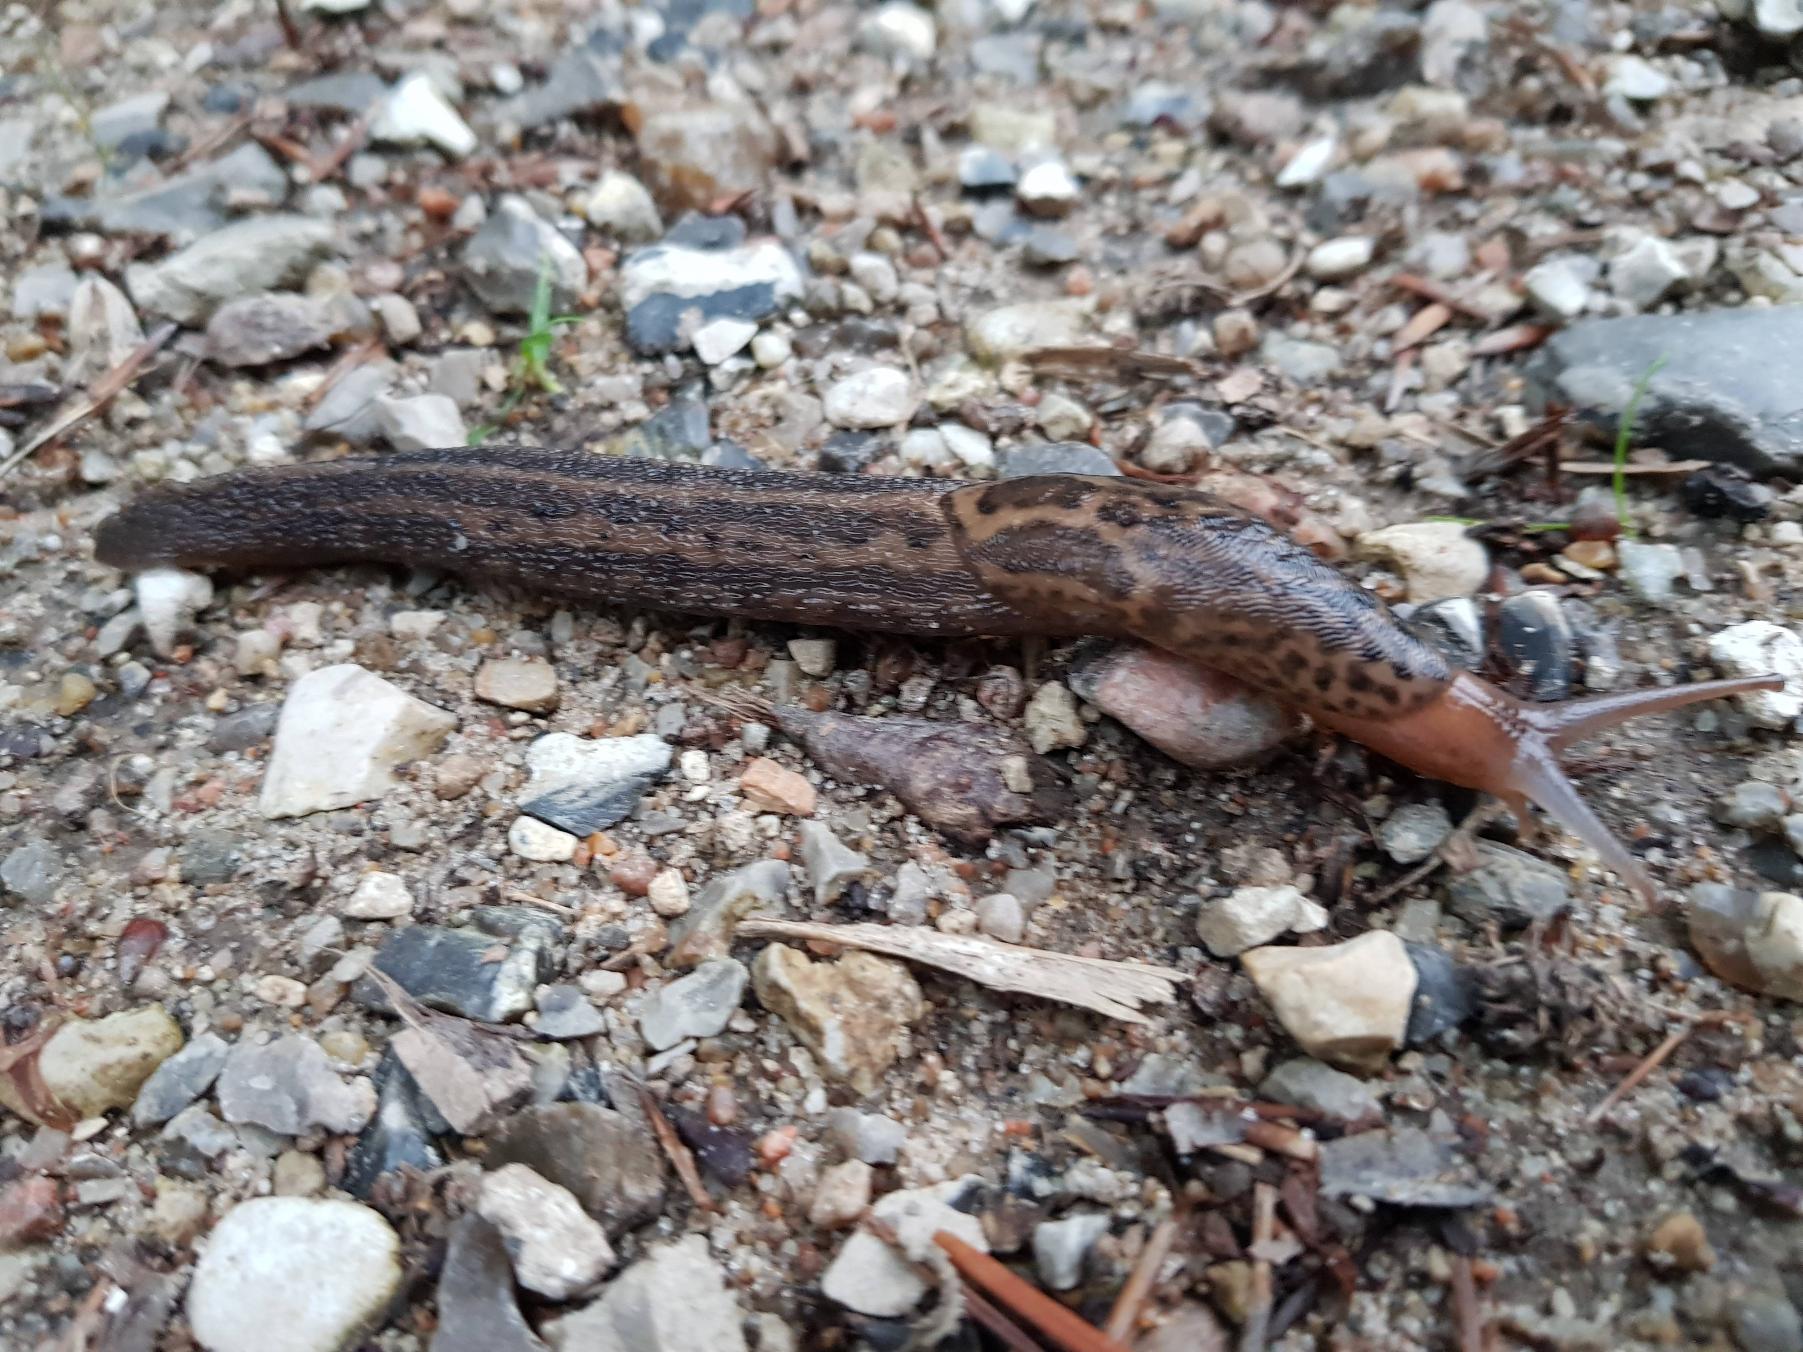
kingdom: Animalia
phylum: Mollusca
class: Gastropoda
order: Stylommatophora
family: Limacidae
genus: Limax
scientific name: Limax maximus
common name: Pantersnegl
